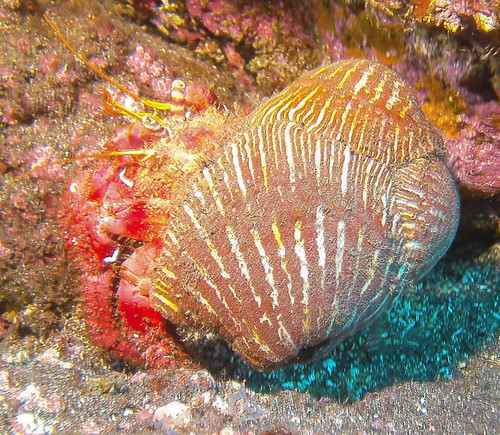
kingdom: Animalia
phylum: Arthropoda
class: Malacostraca
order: Decapoda
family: Diogenidae
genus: Dardanus
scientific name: Dardanus calidus
